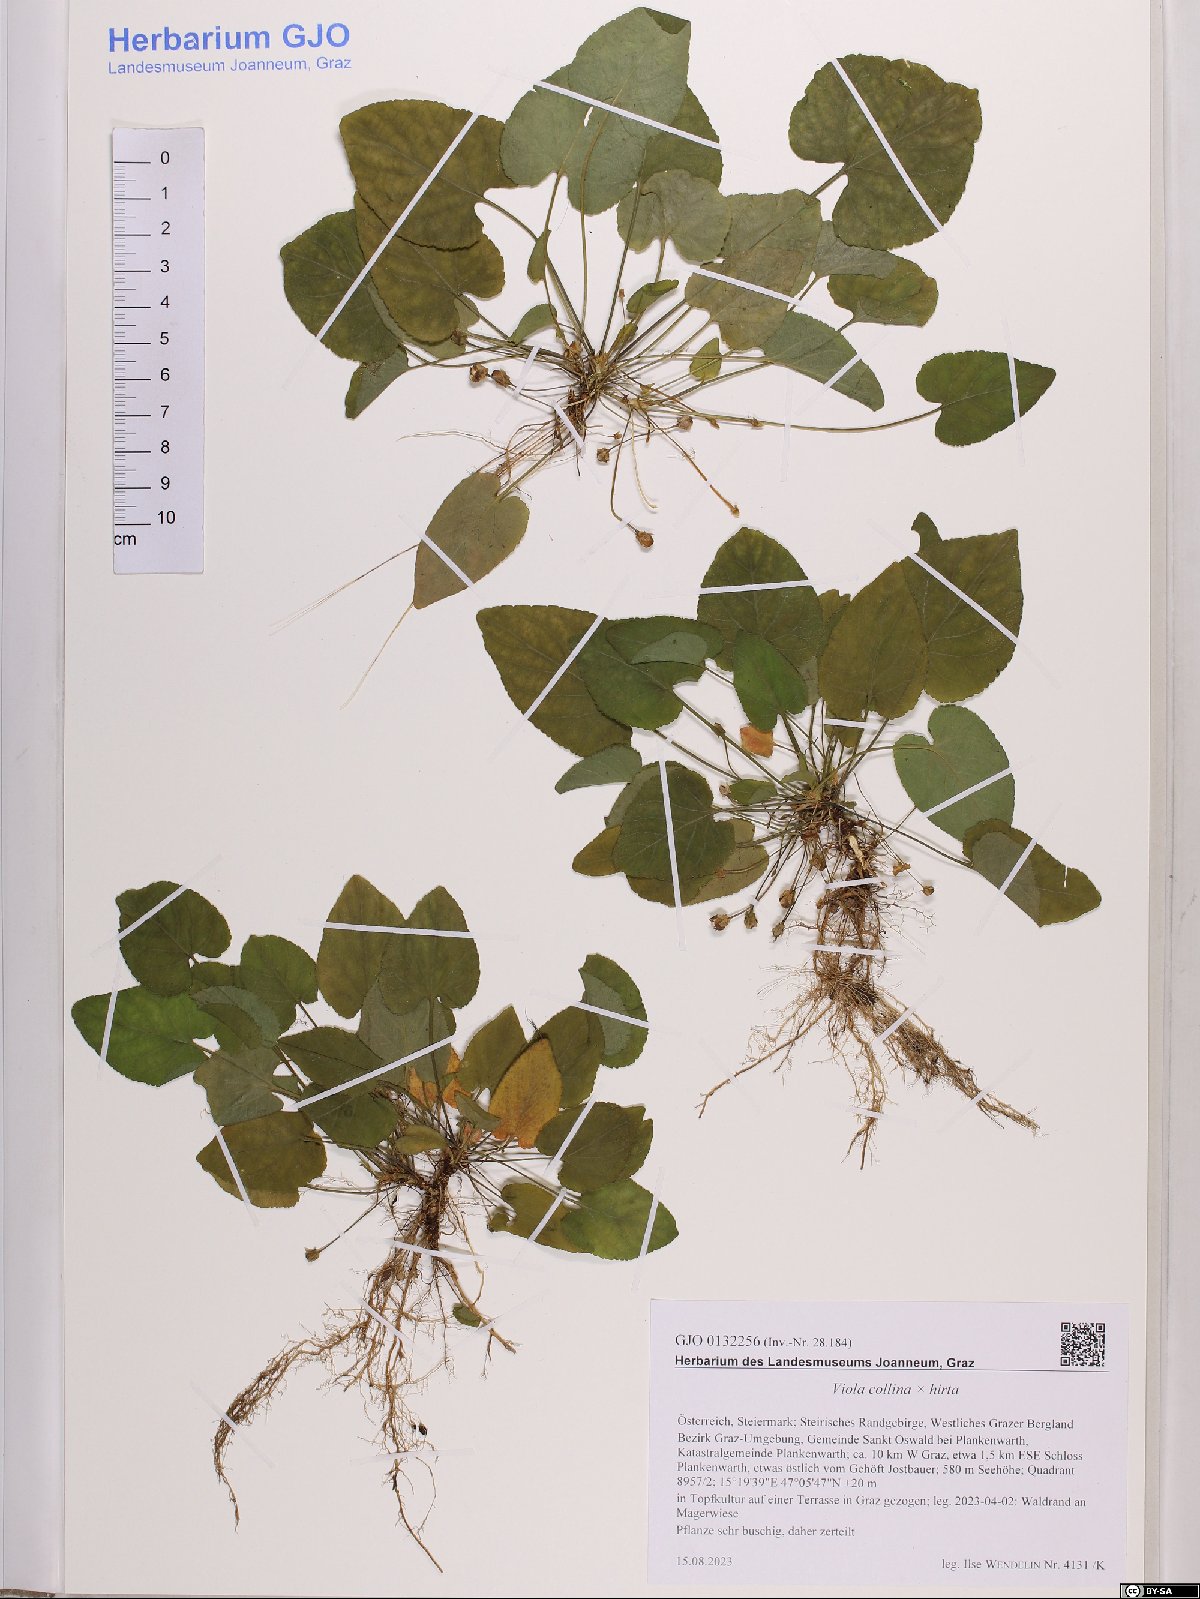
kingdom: Plantae
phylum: Tracheophyta
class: Magnoliopsida
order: Malpighiales
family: Violaceae
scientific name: Violaceae
